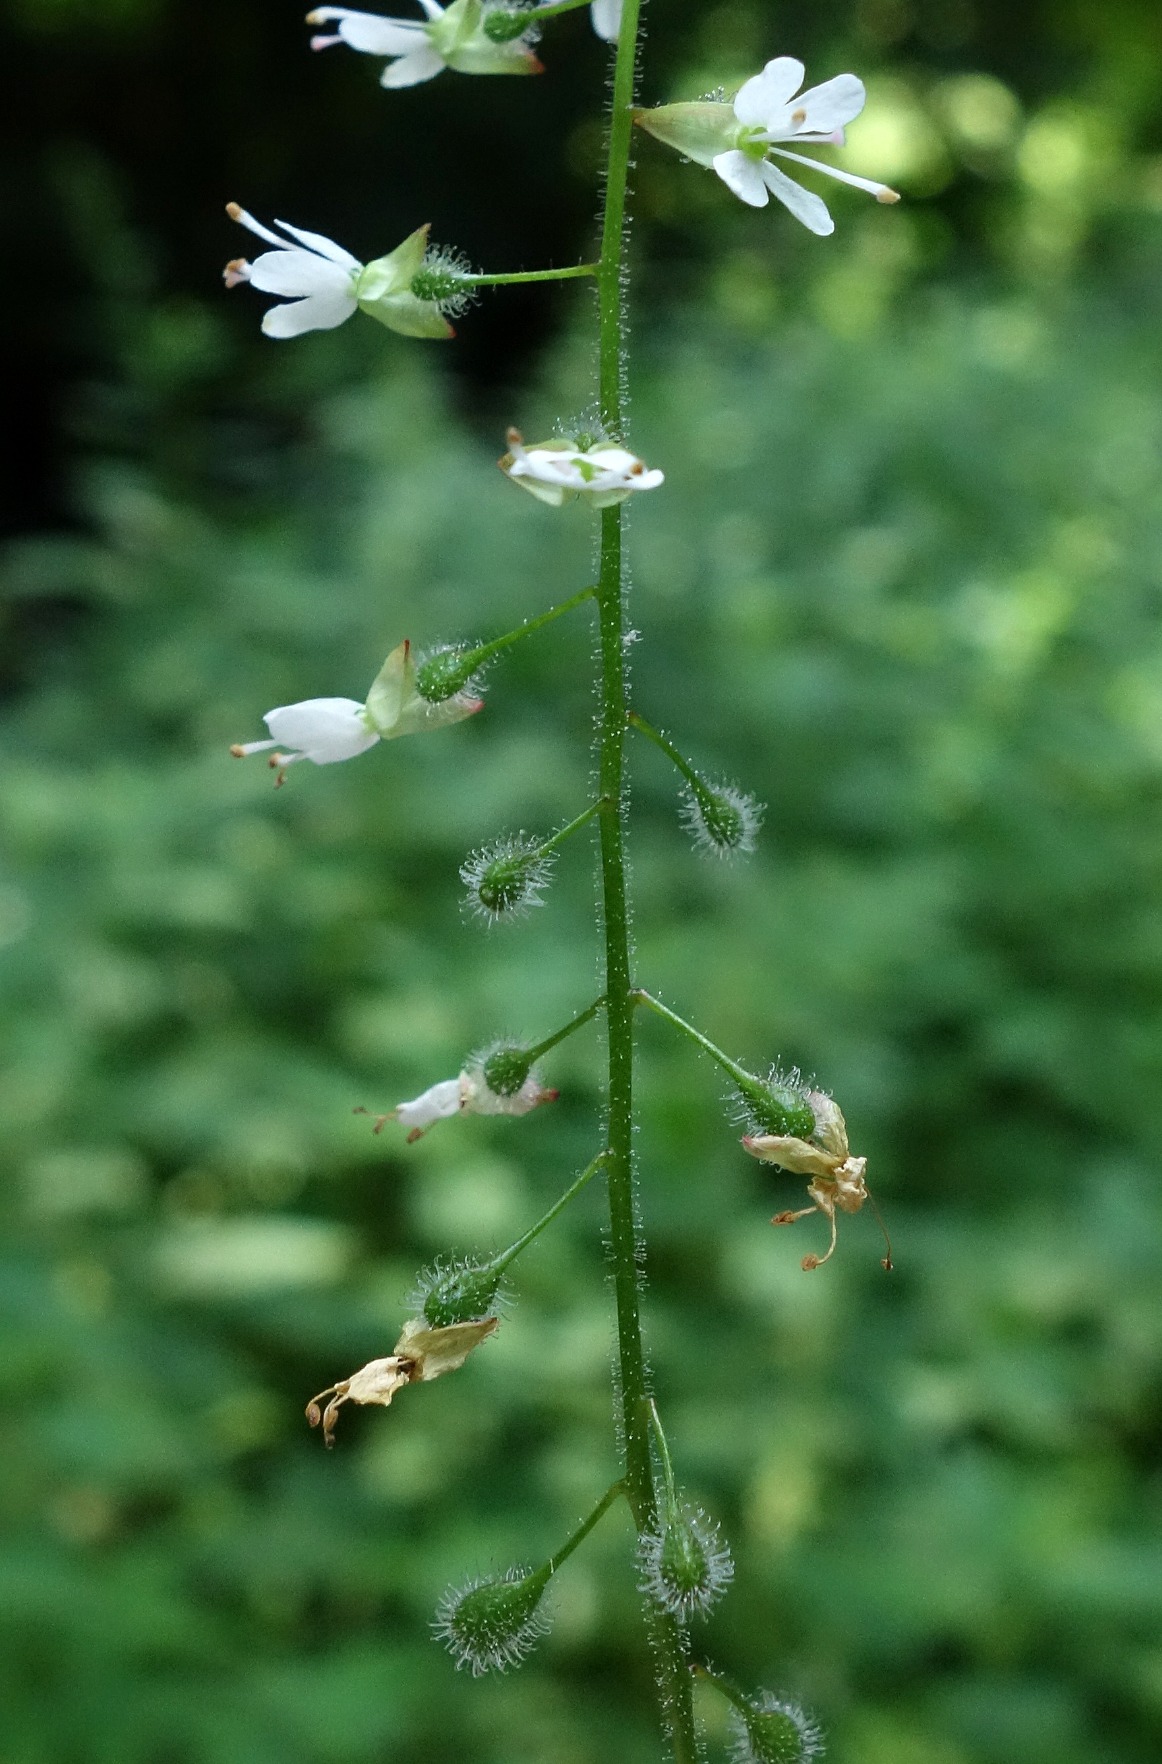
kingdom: Plantae
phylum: Tracheophyta
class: Magnoliopsida
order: Myrtales
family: Onagraceae
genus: Circaea
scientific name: Circaea lutetiana
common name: Dunet steffensurt
